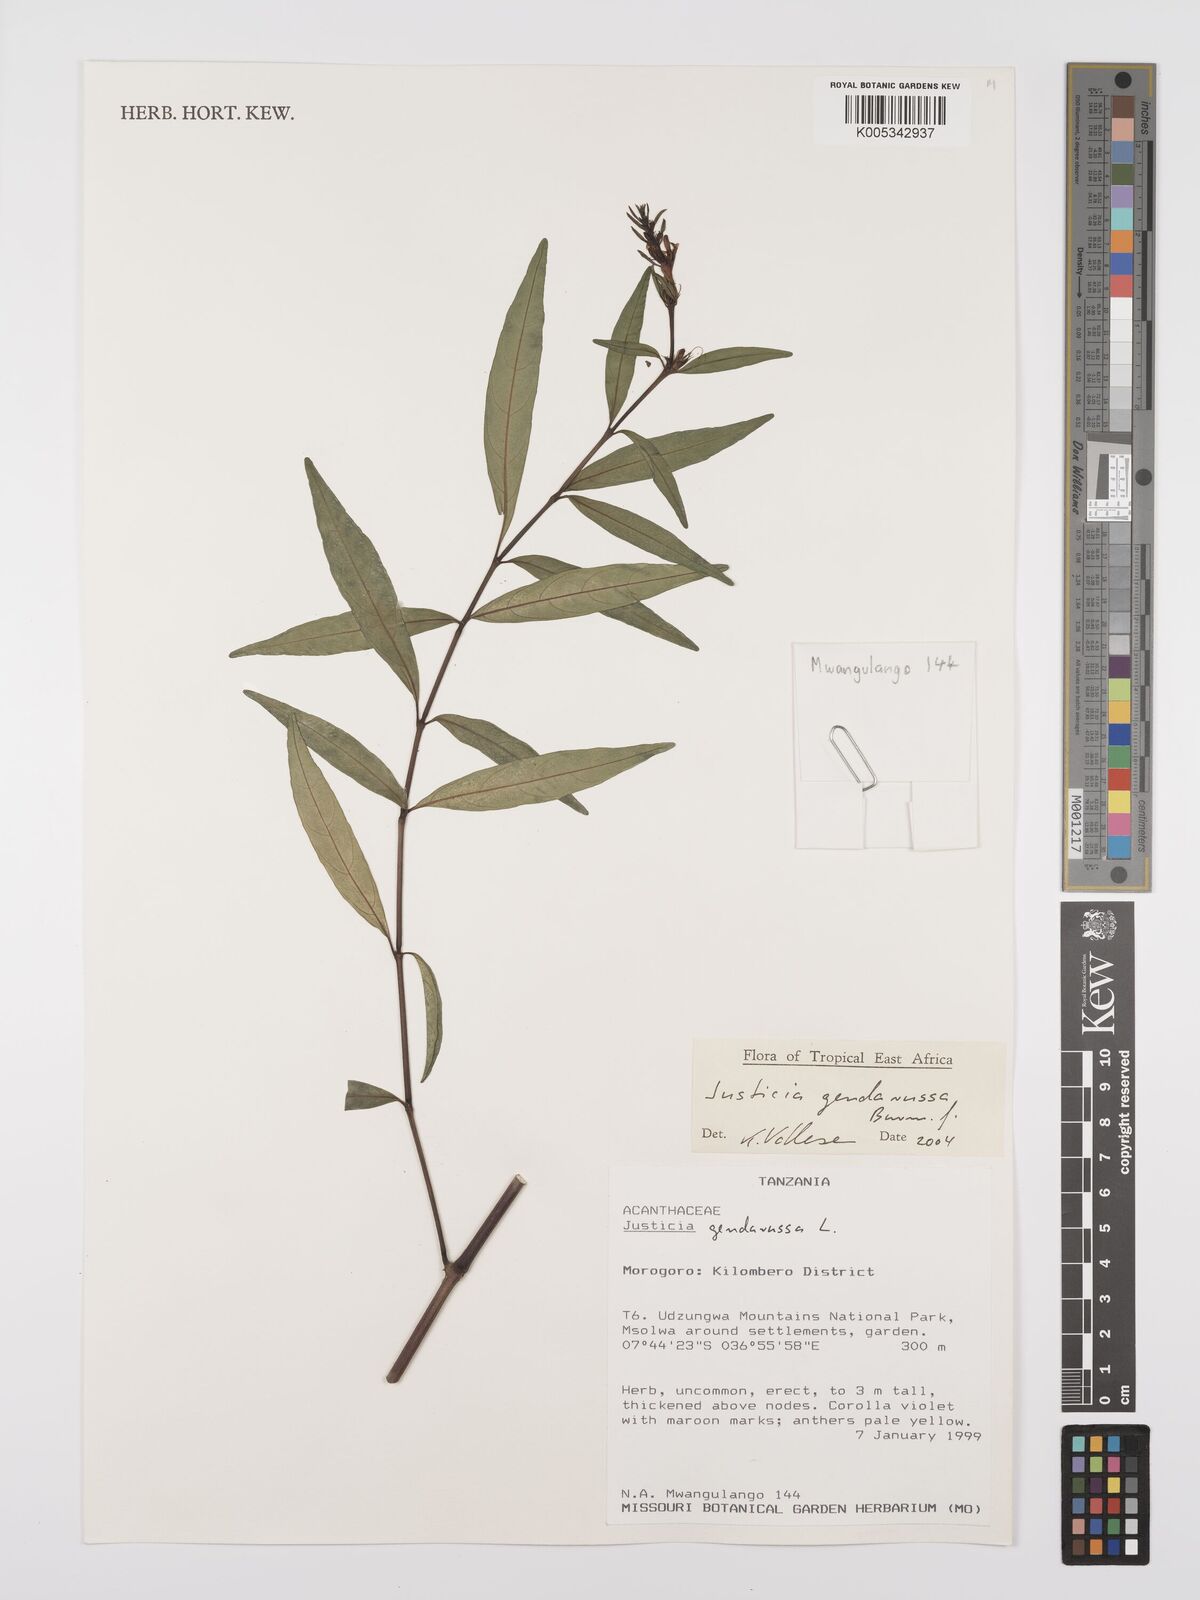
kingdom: Plantae
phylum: Tracheophyta
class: Magnoliopsida
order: Lamiales
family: Acanthaceae
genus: Justicia
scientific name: Justicia
